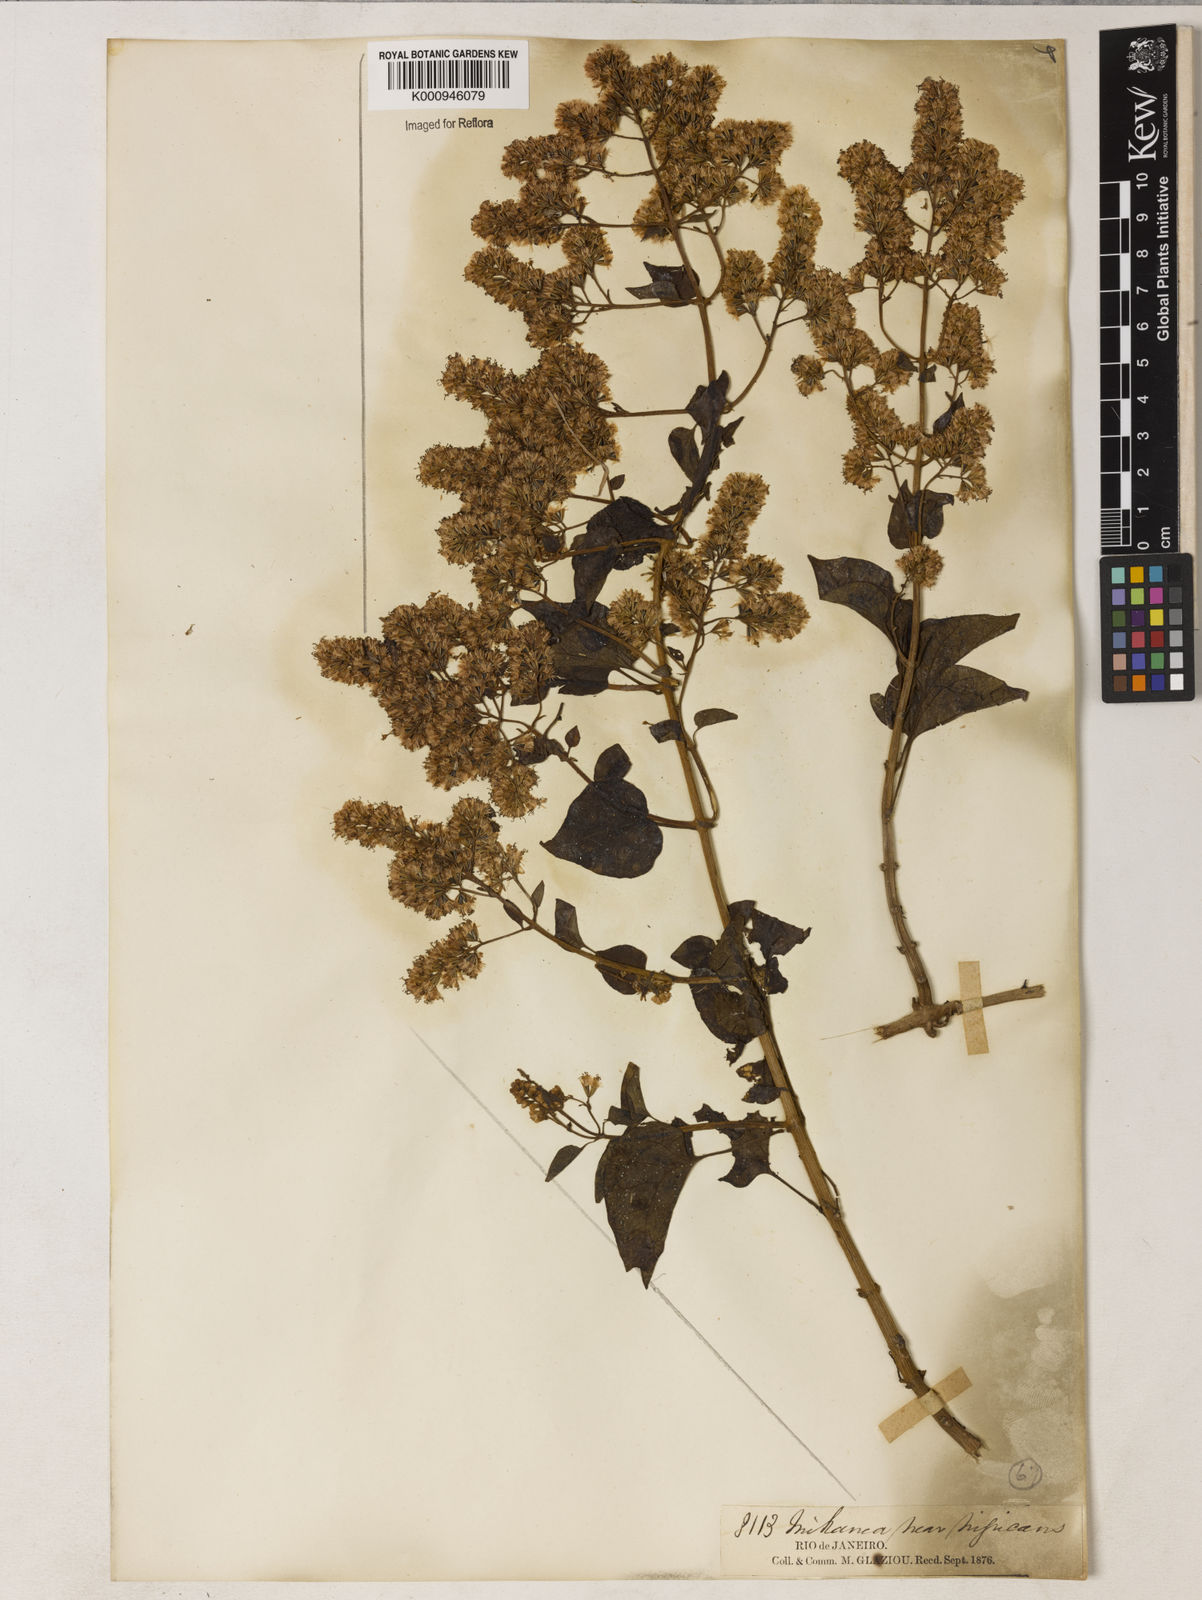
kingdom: Plantae
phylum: Tracheophyta
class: Magnoliopsida
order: Asterales
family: Asteraceae
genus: Mikania
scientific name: Mikania nigricans
